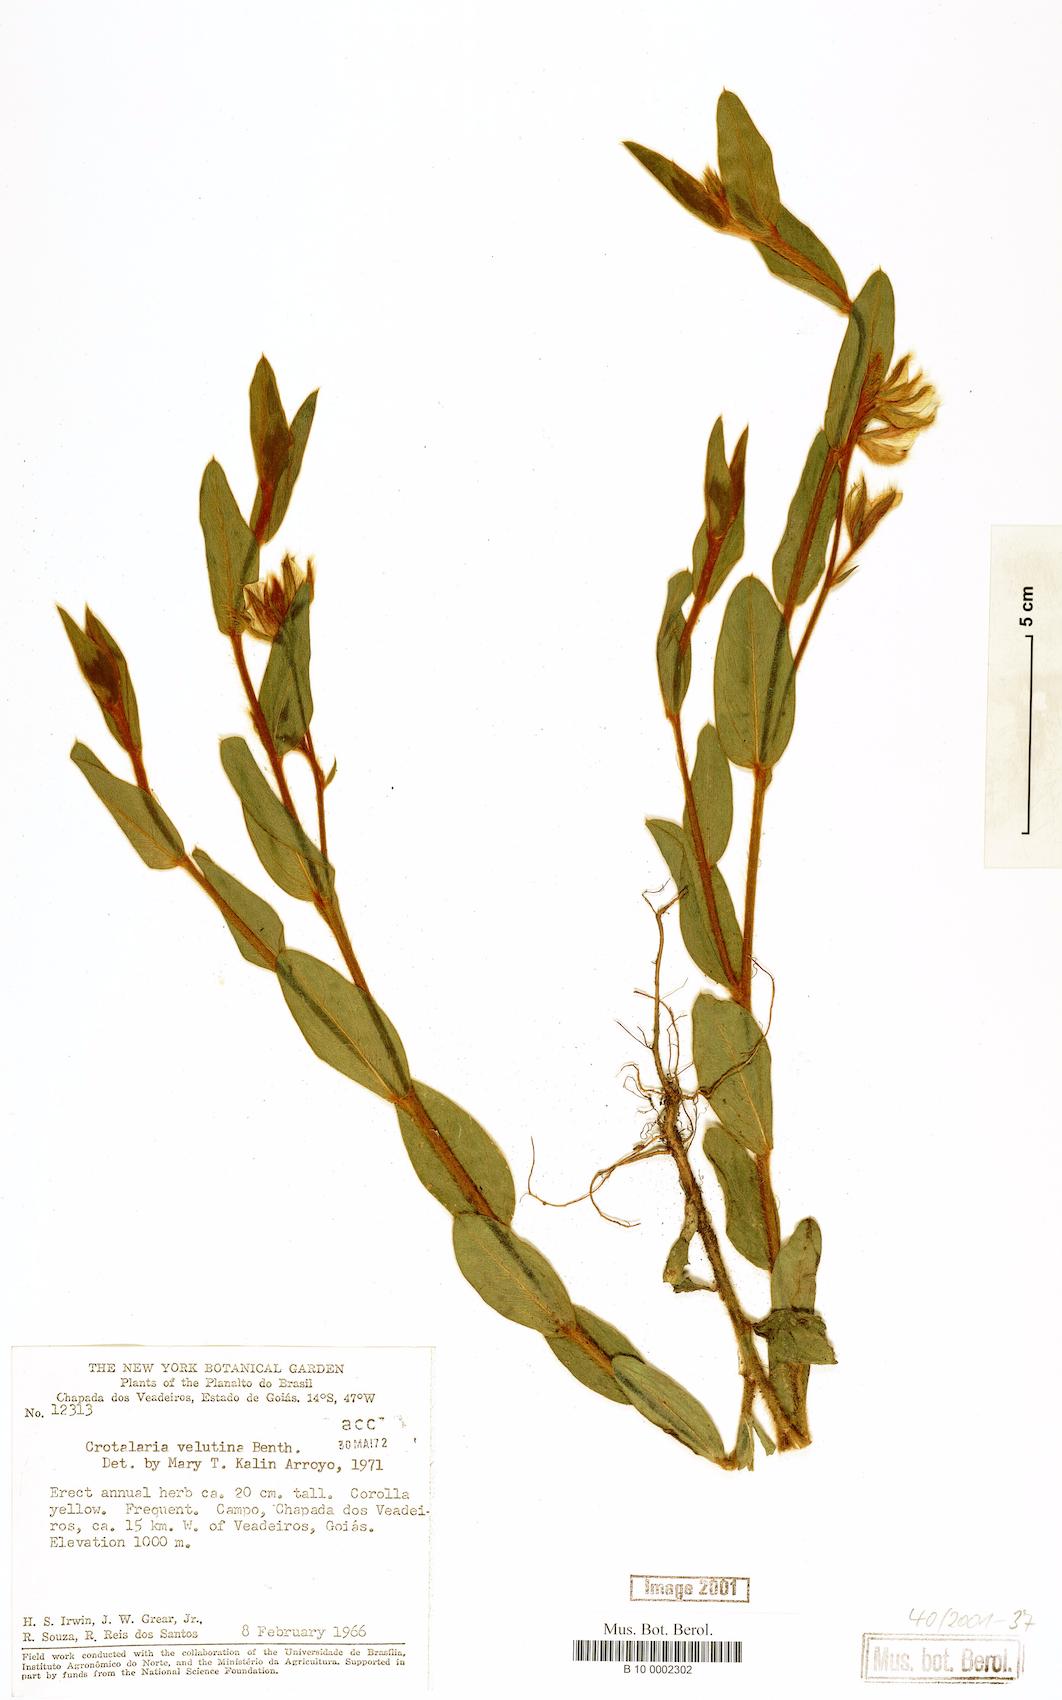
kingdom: Plantae
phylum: Tracheophyta
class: Magnoliopsida
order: Fabales
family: Fabaceae
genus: Crotalaria
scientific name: Crotalaria velutina
